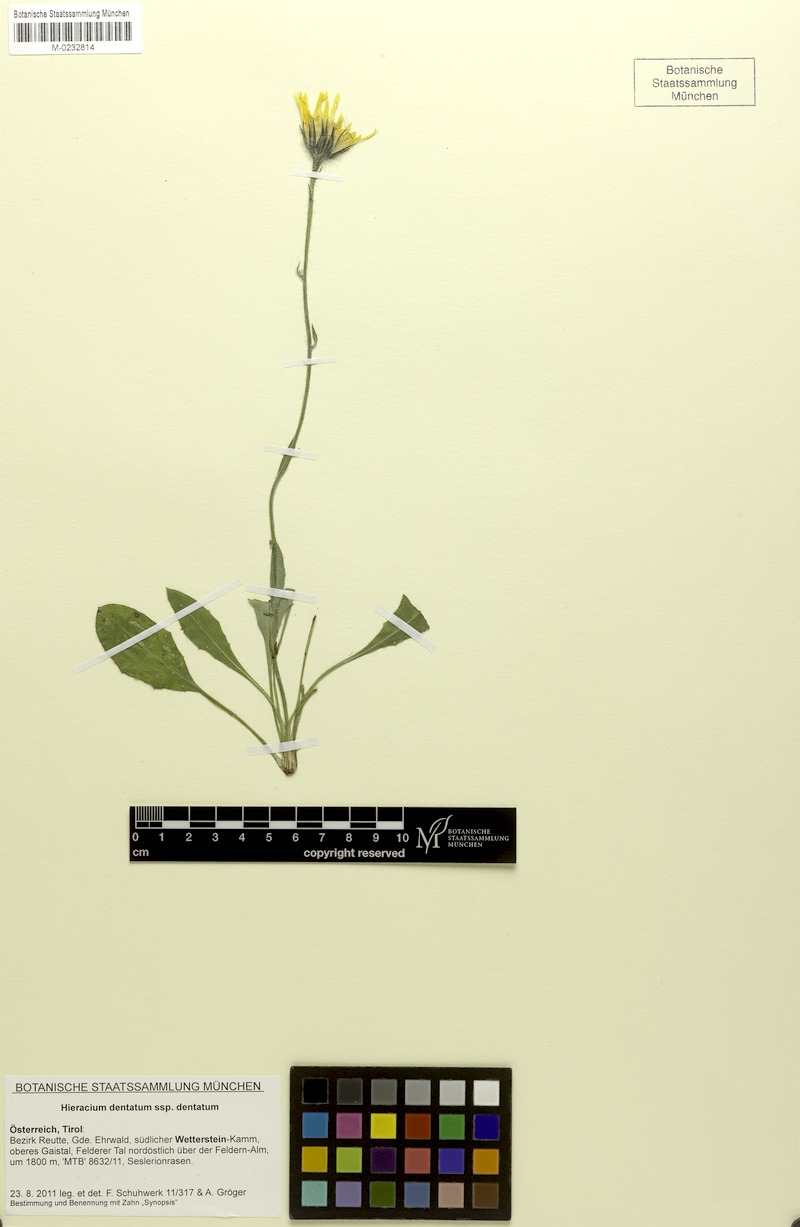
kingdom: Plantae
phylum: Tracheophyta
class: Magnoliopsida
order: Asterales
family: Asteraceae
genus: Hieracium
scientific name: Hieracium dentatum
